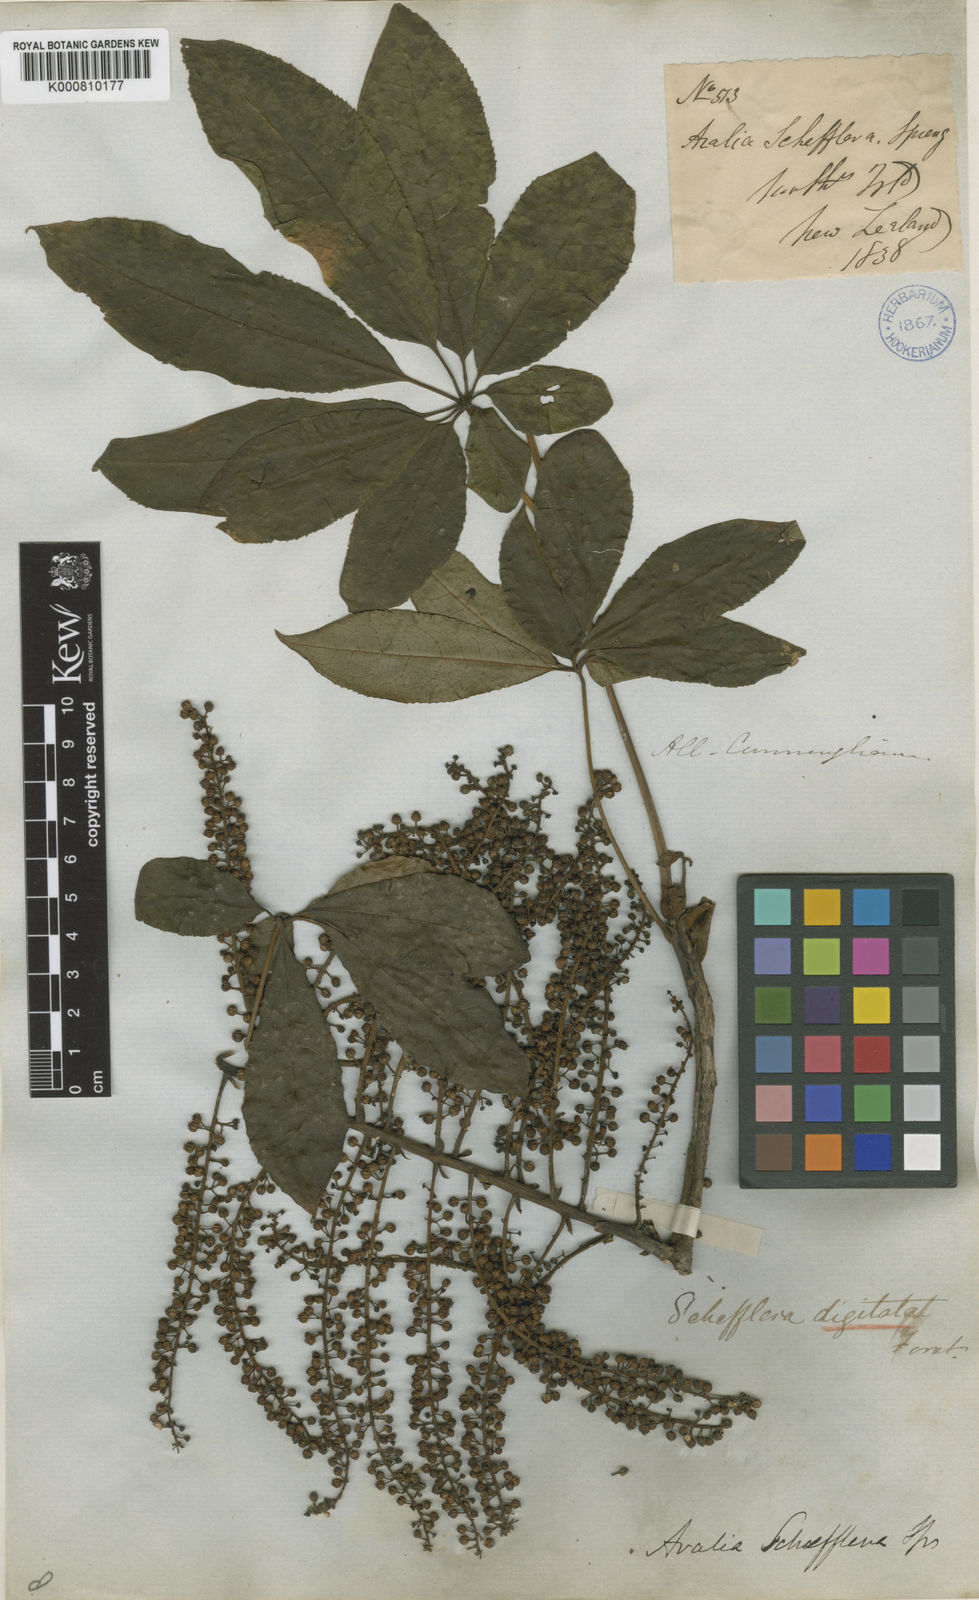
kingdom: Plantae
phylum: Tracheophyta
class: Magnoliopsida
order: Apiales
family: Araliaceae
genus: Schefflera
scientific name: Schefflera digitata
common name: Pate
